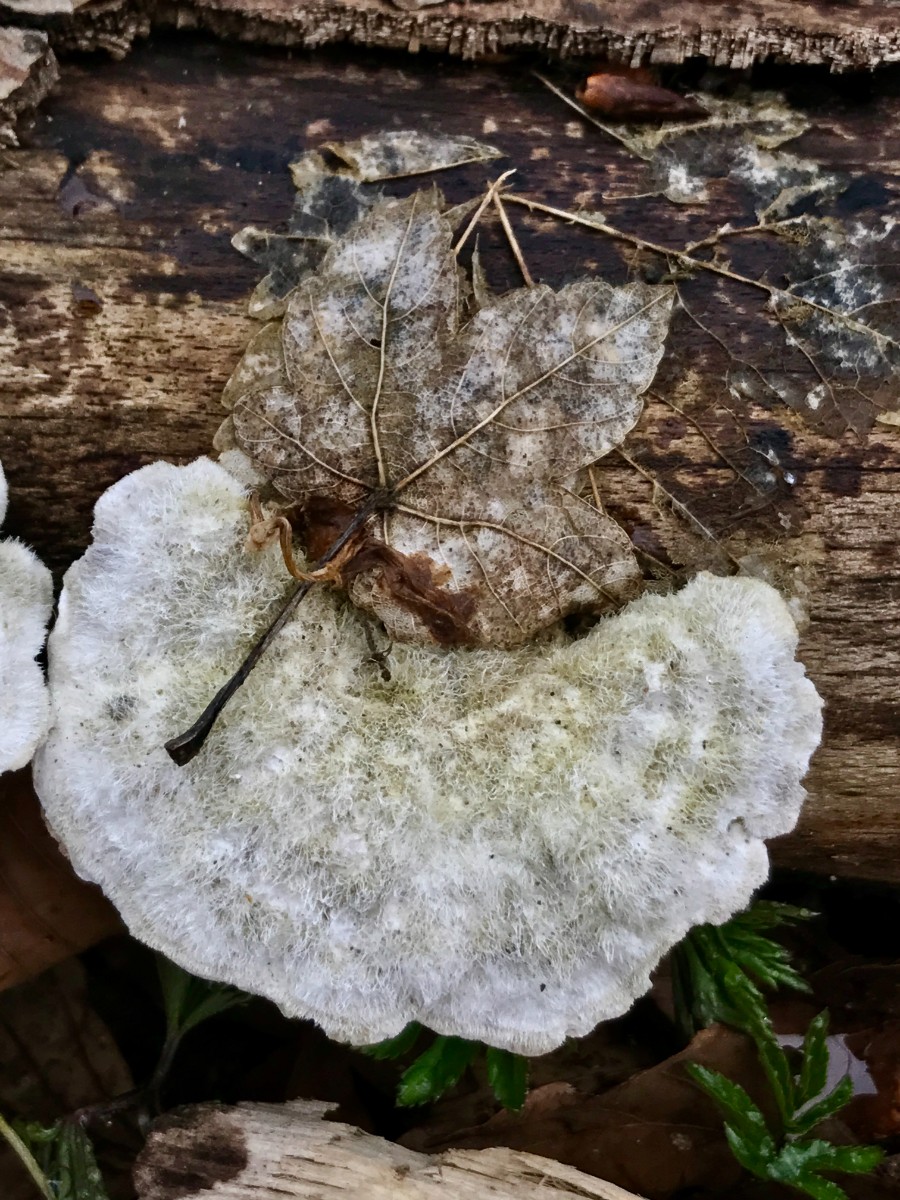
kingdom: Fungi
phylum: Basidiomycota
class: Agaricomycetes
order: Polyporales
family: Polyporaceae
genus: Trametes
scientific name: Trametes hirsuta
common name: håret læderporesvamp
